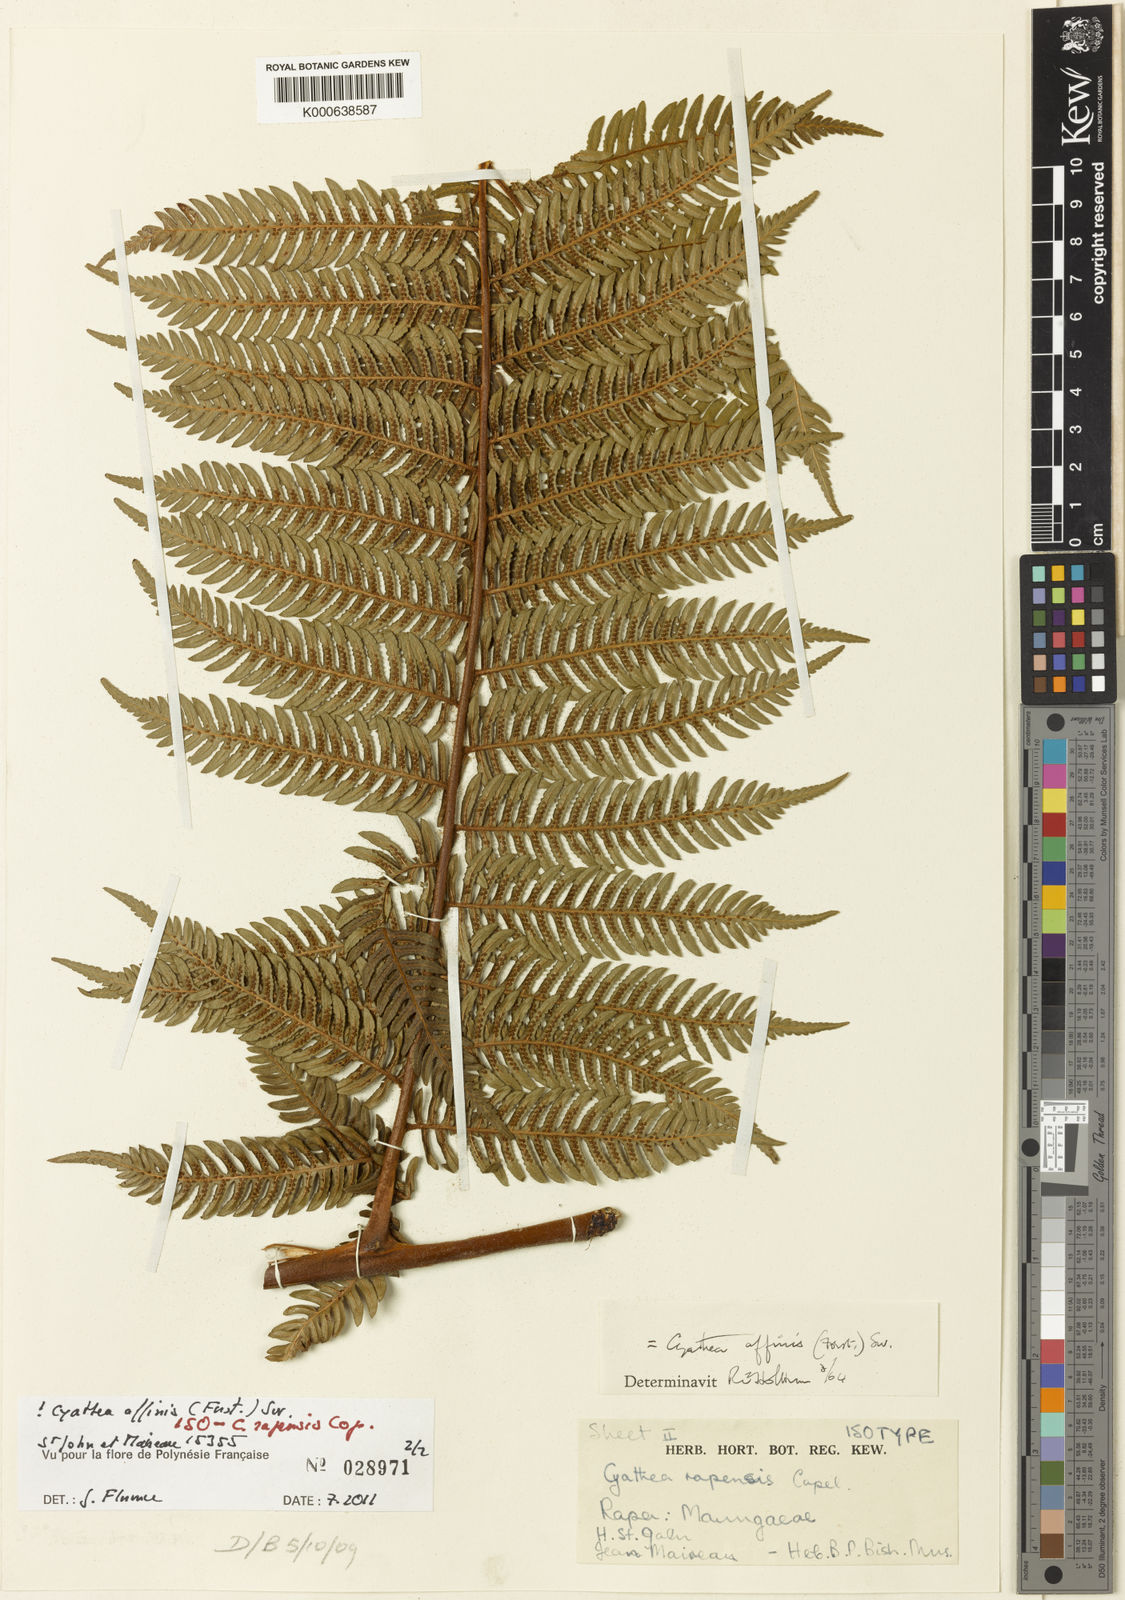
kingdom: Plantae
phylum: Tracheophyta
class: Polypodiopsida
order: Cyatheales
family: Cyatheaceae
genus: Alsophila
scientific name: Alsophila tahitensis
